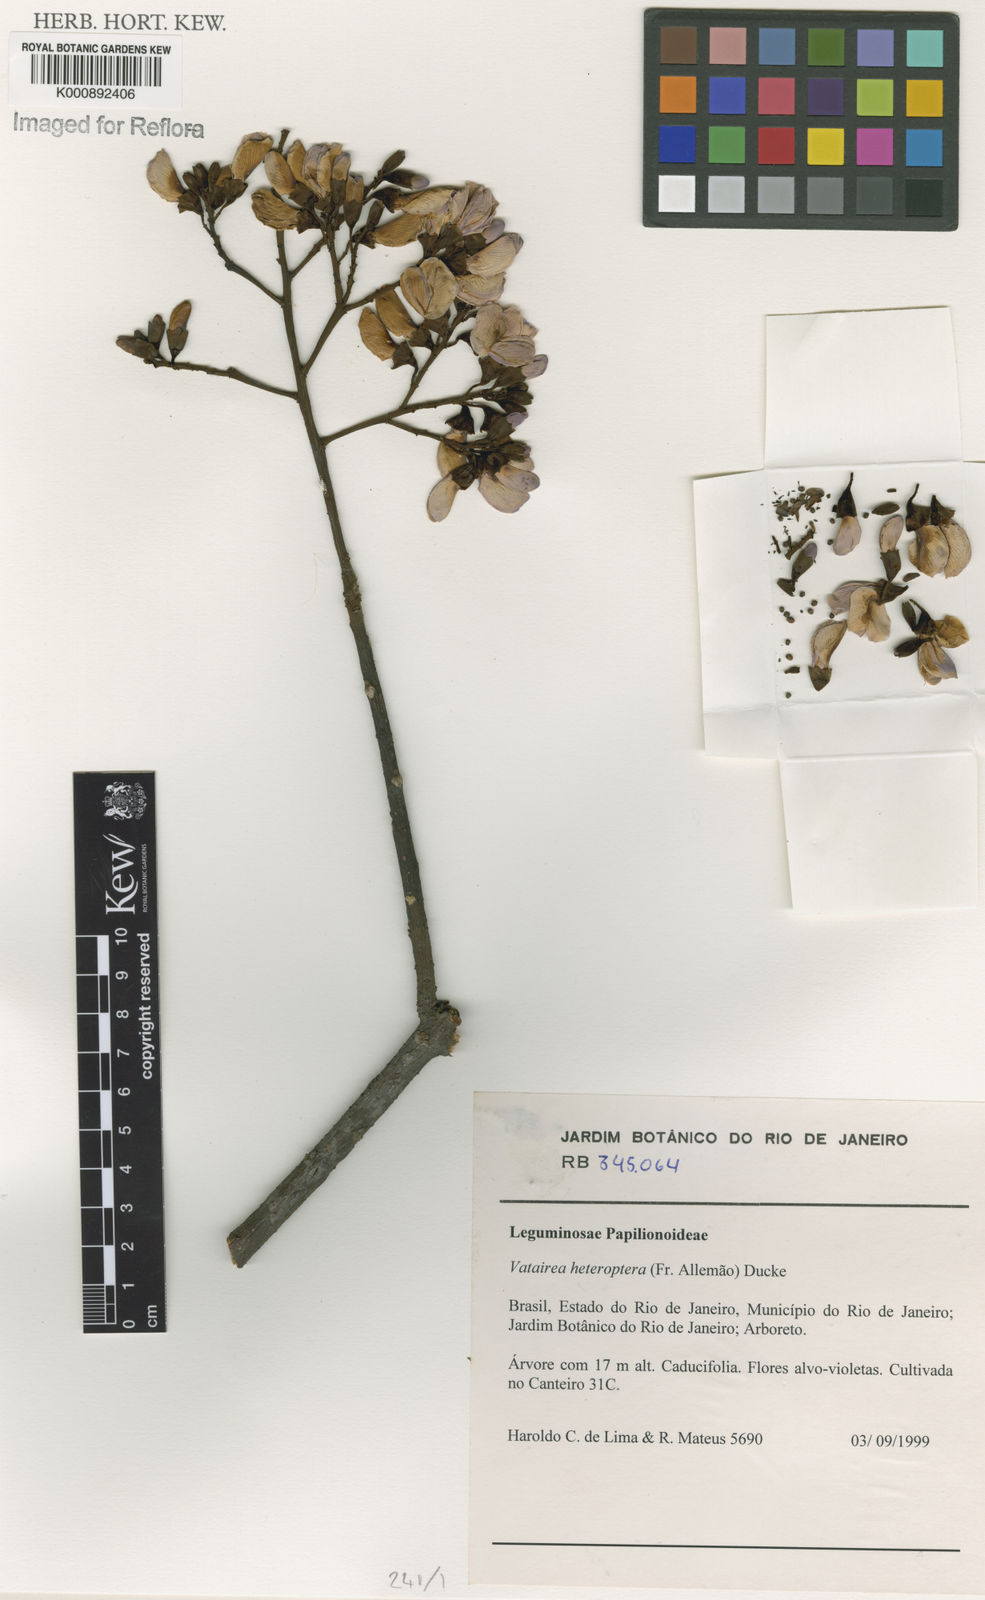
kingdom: Plantae
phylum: Tracheophyta
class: Magnoliopsida
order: Fabales
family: Fabaceae
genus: Vatairea
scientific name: Vatairea
